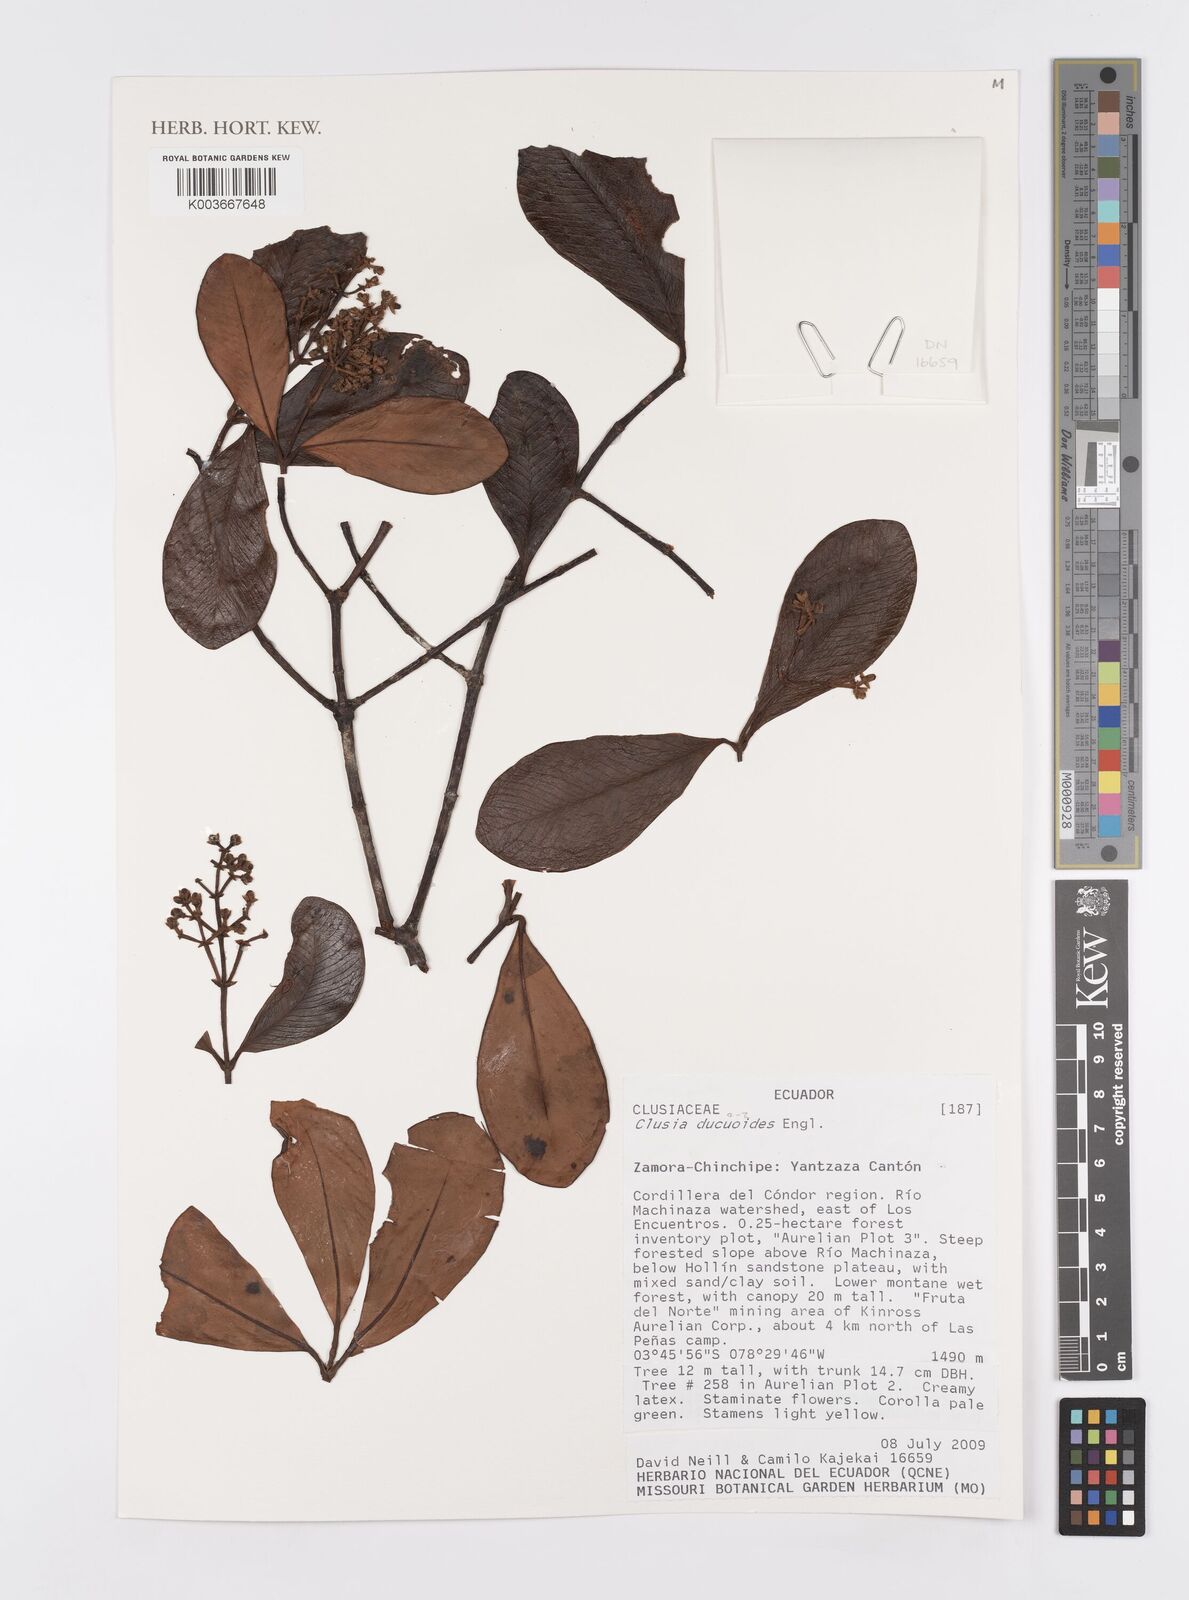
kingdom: Plantae
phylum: Tracheophyta
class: Magnoliopsida
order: Malpighiales
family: Clusiaceae
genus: Clusia
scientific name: Clusia ducuoides
